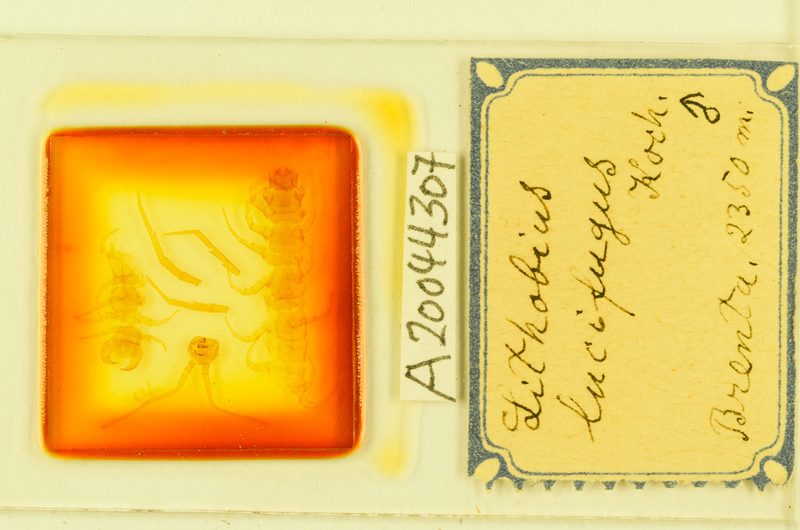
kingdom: Animalia
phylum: Arthropoda
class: Chilopoda
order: Lithobiomorpha
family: Lithobiidae
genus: Lithobius
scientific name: Lithobius lucifugus
